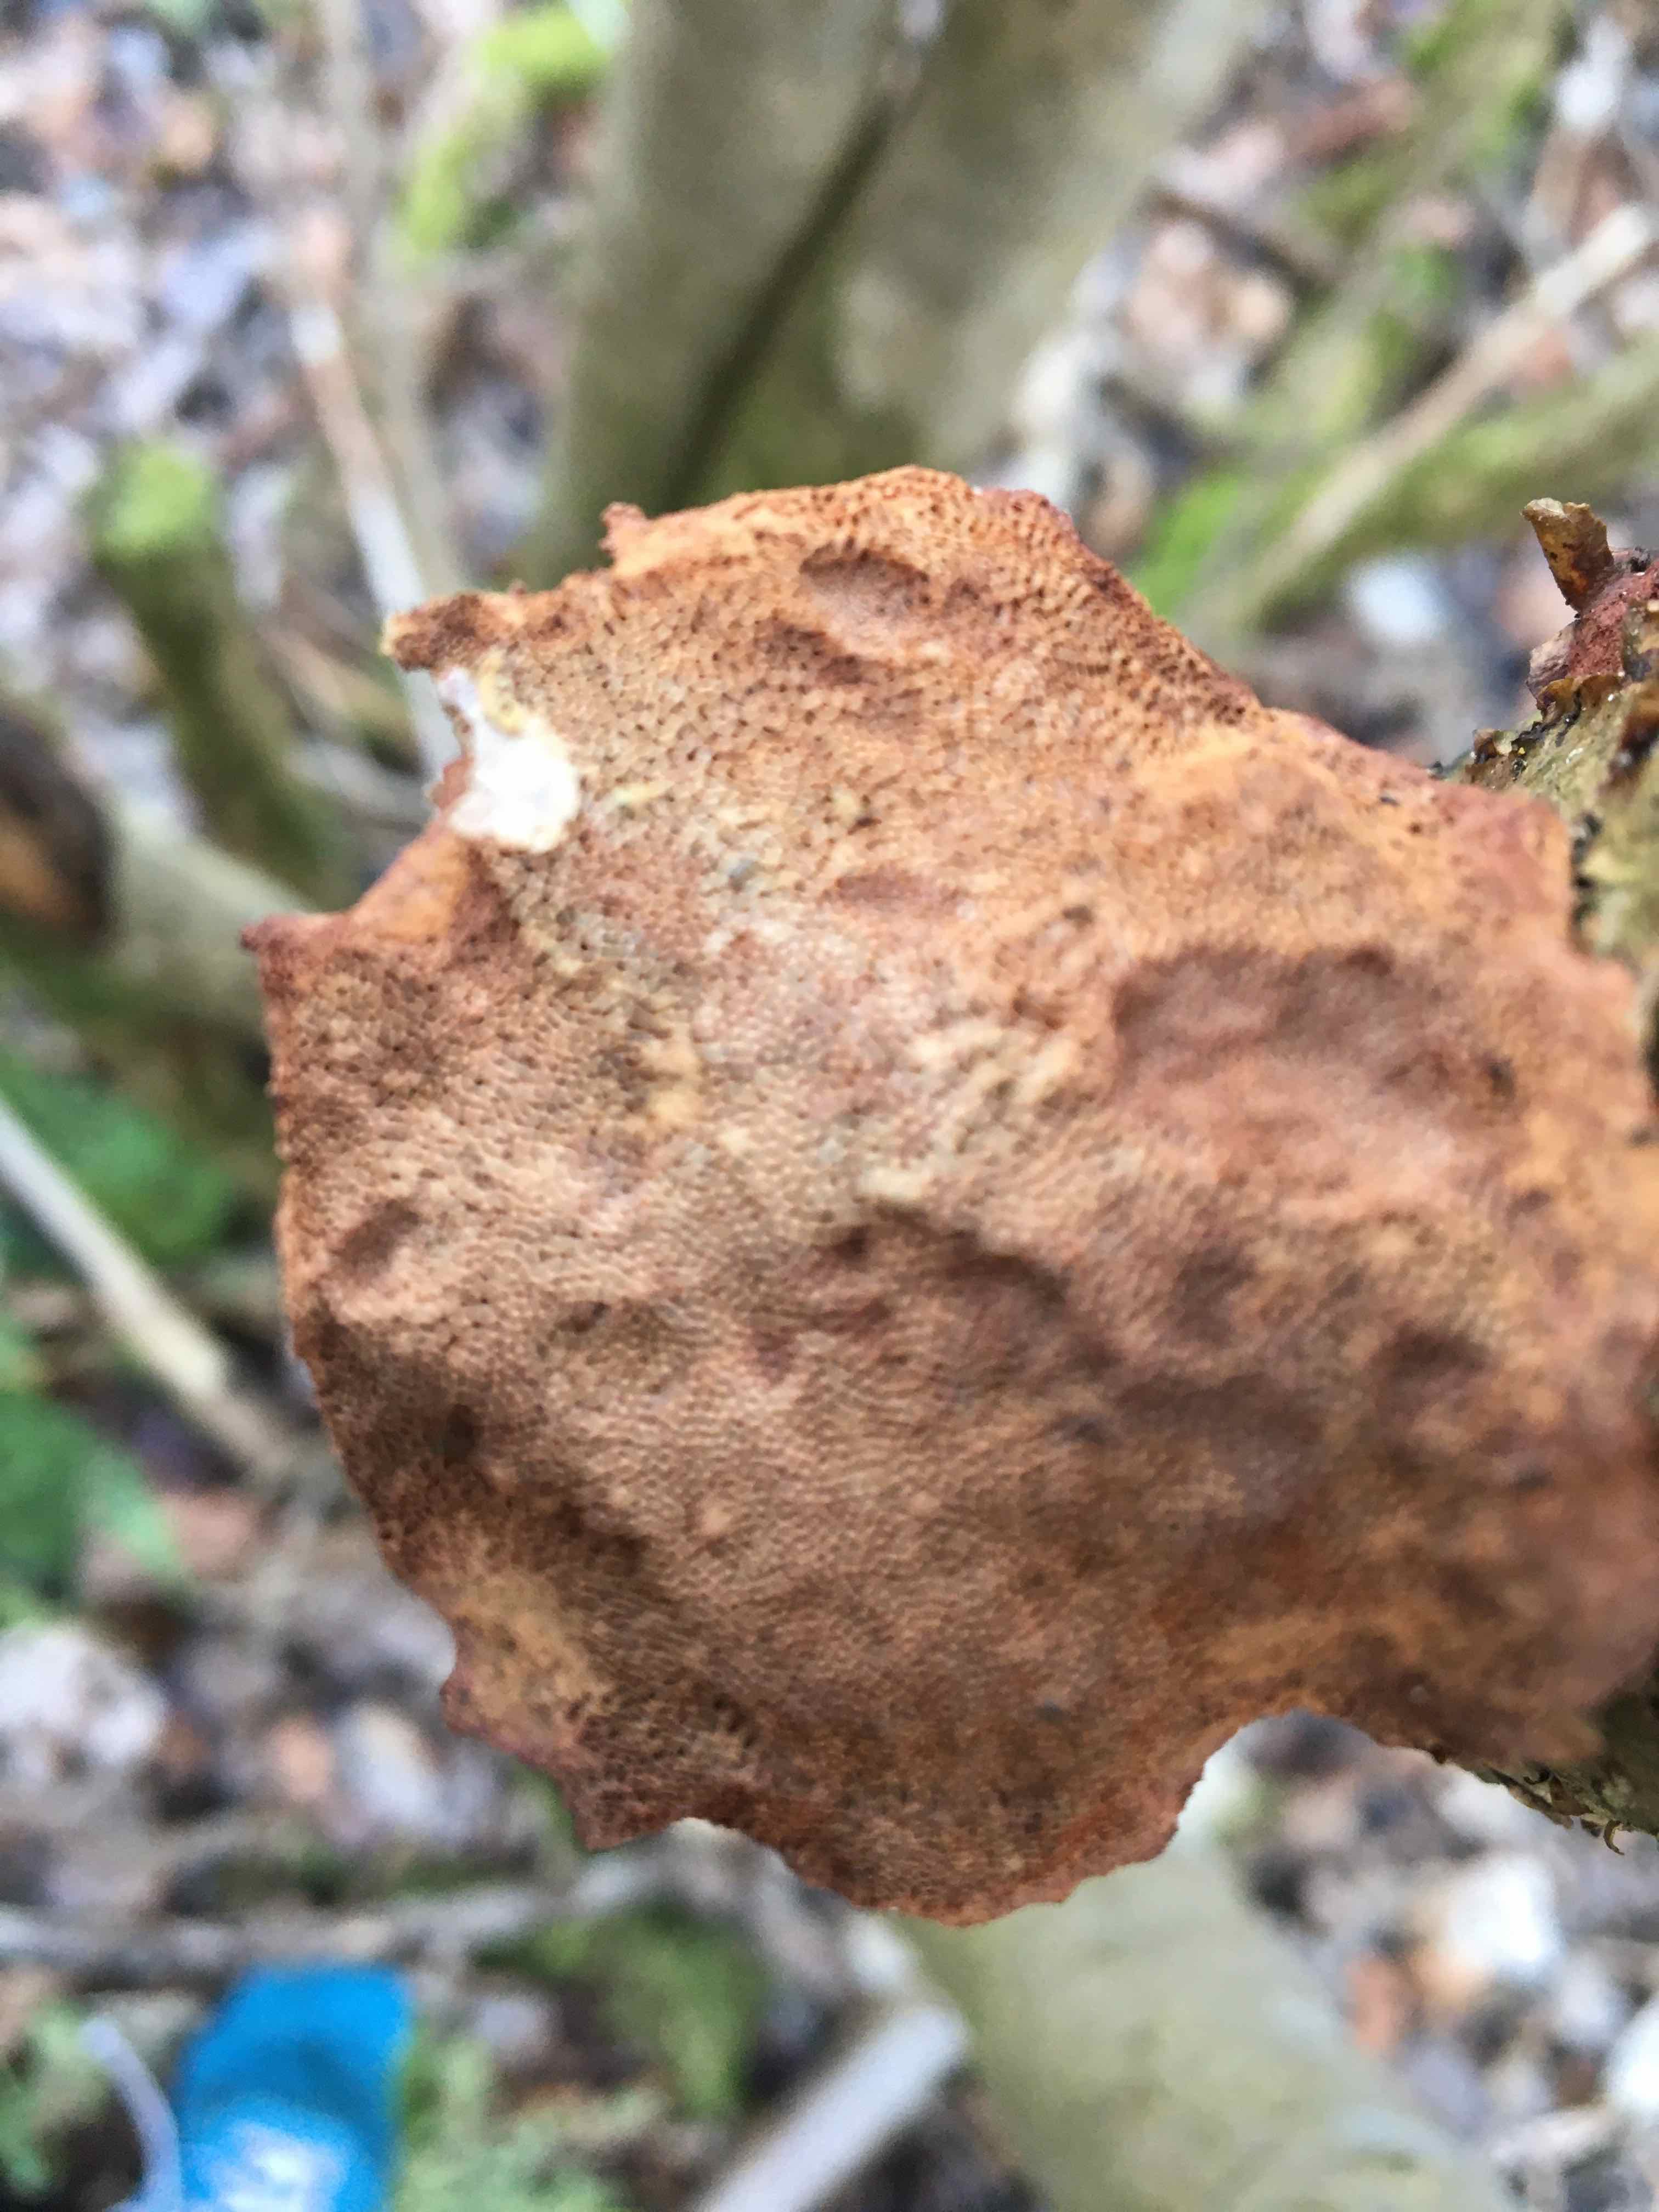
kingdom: Fungi
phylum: Basidiomycota
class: Agaricomycetes
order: Polyporales
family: Phanerochaetaceae
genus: Hapalopilus
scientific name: Hapalopilus rutilans
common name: rødlig okkerporesvamp
